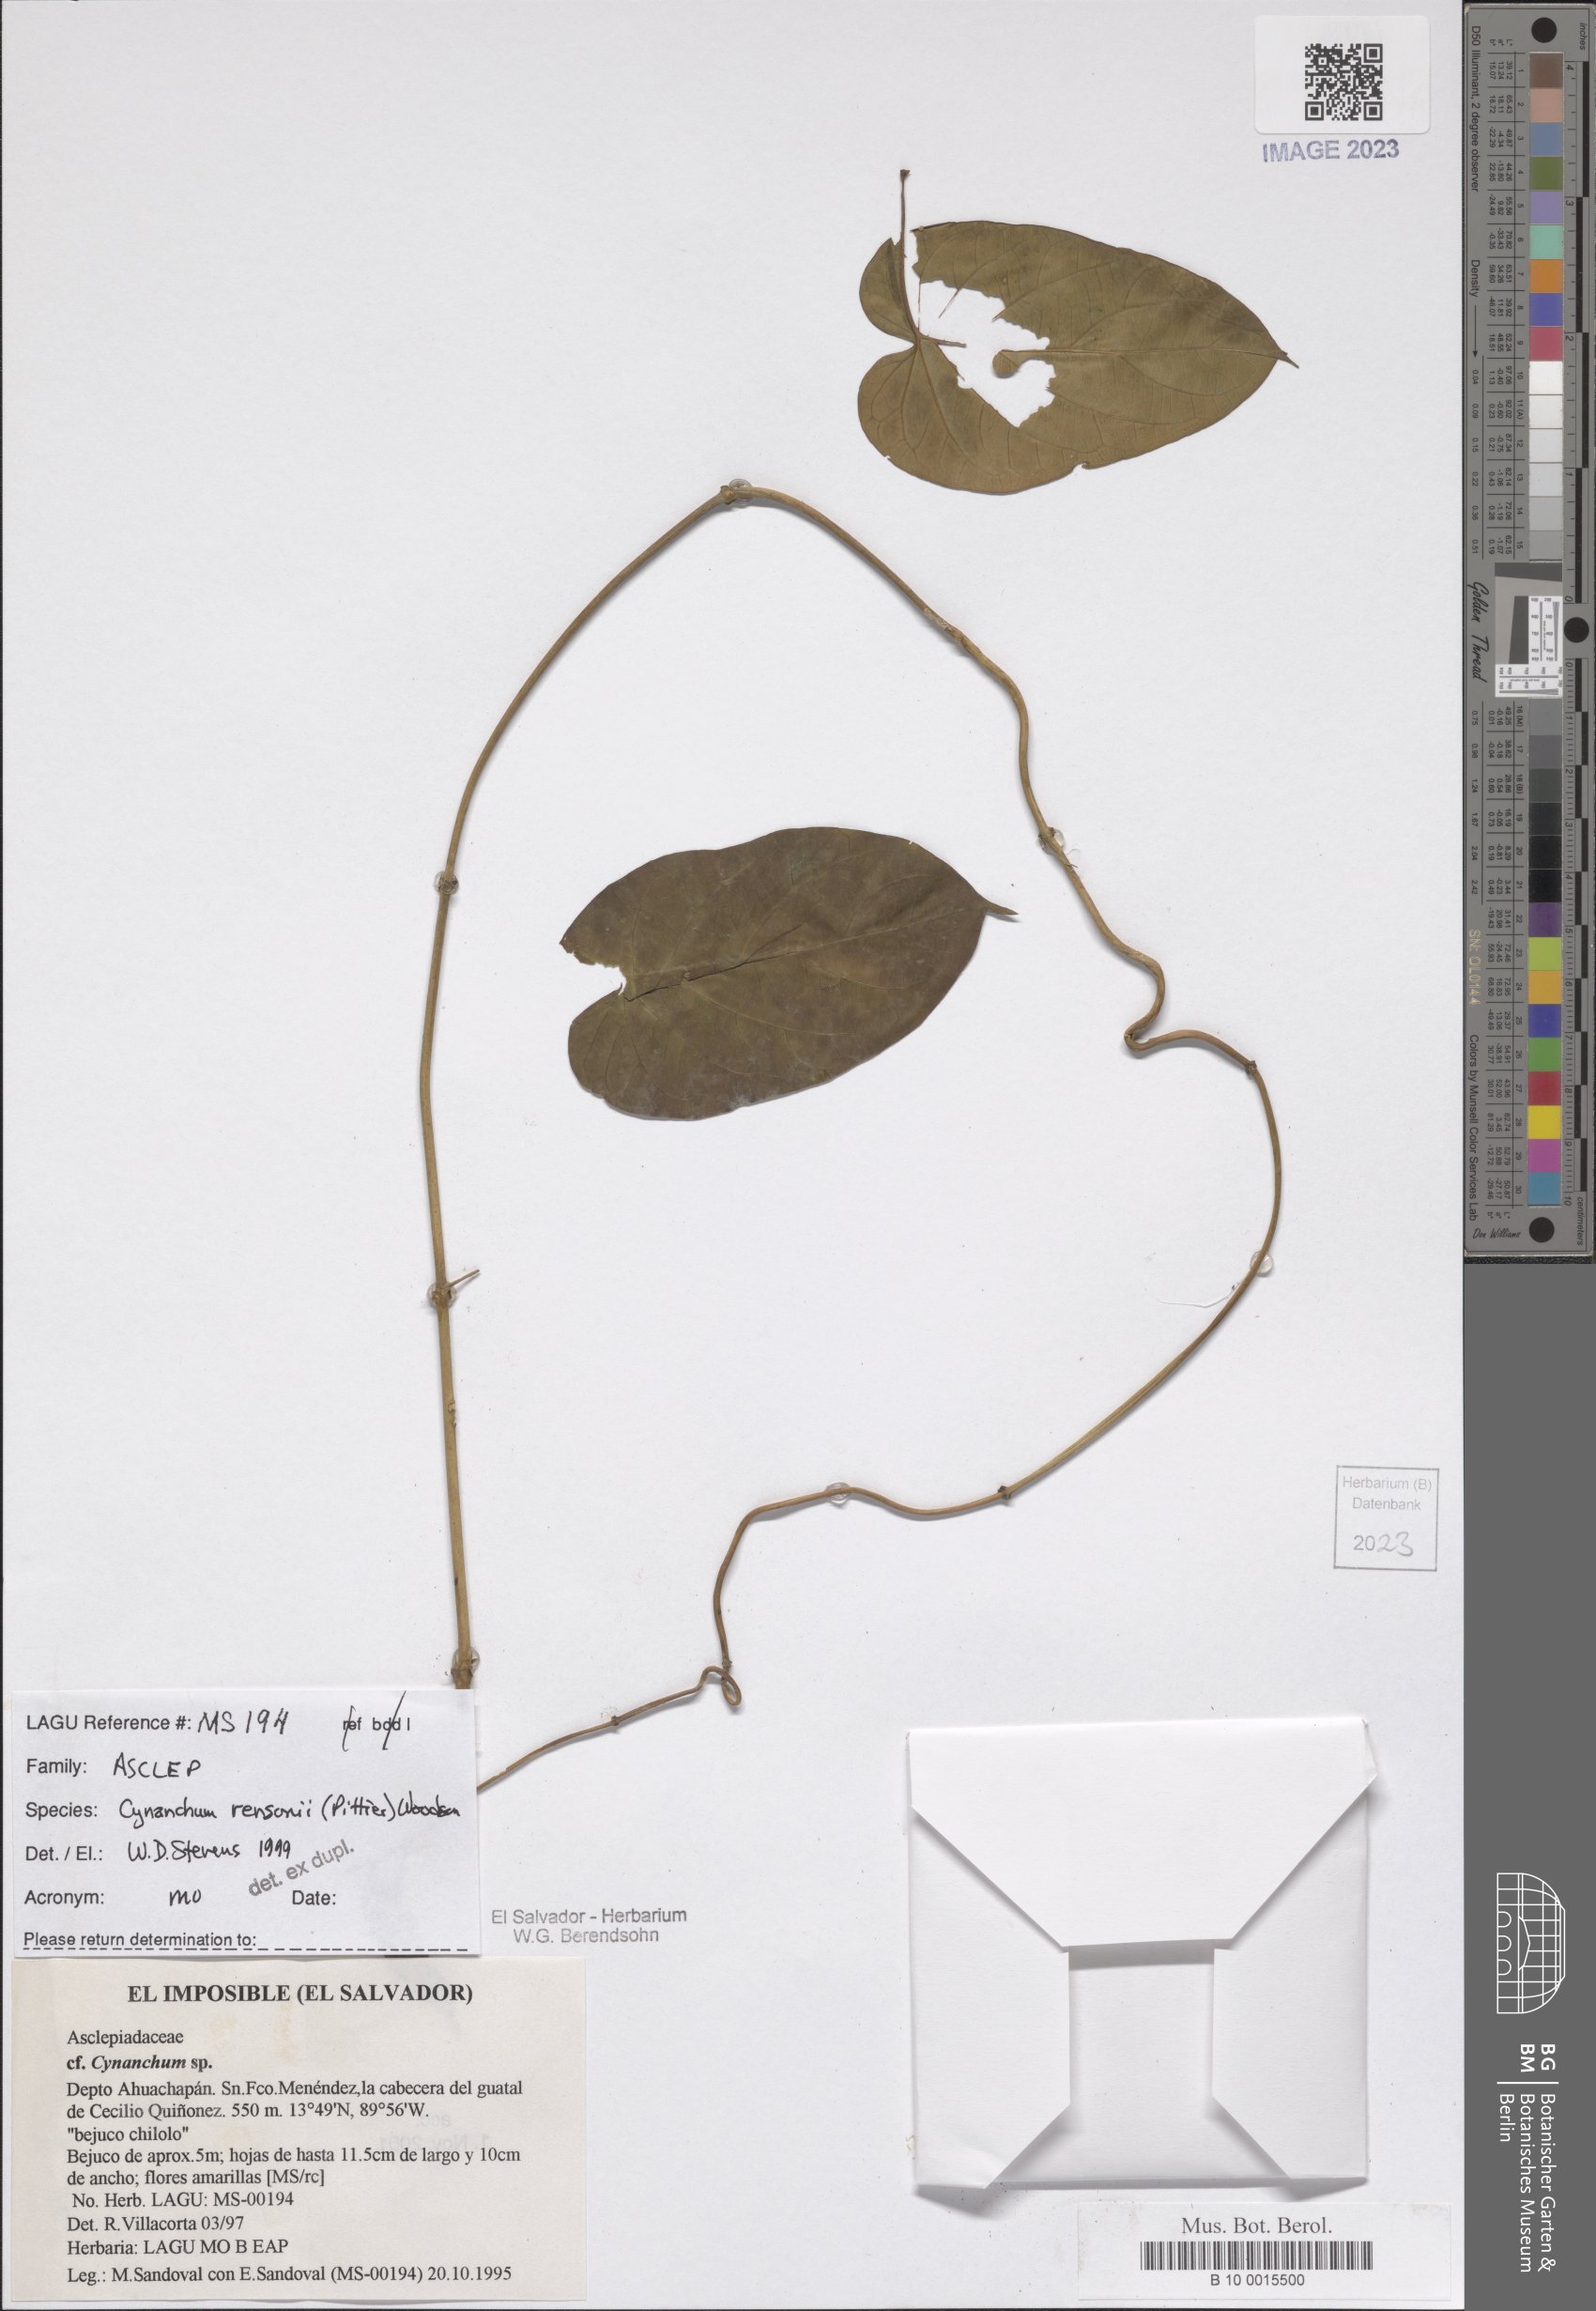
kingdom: Plantae
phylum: Tracheophyta
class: Magnoliopsida
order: Gentianales
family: Apocynaceae
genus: Cynanchum
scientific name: Cynanchum rensonii
